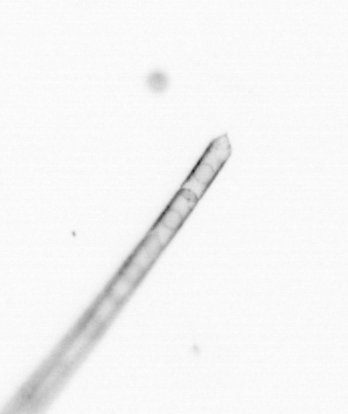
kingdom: Chromista
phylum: Ochrophyta
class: Bacillariophyceae
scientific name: Bacillariophyceae
